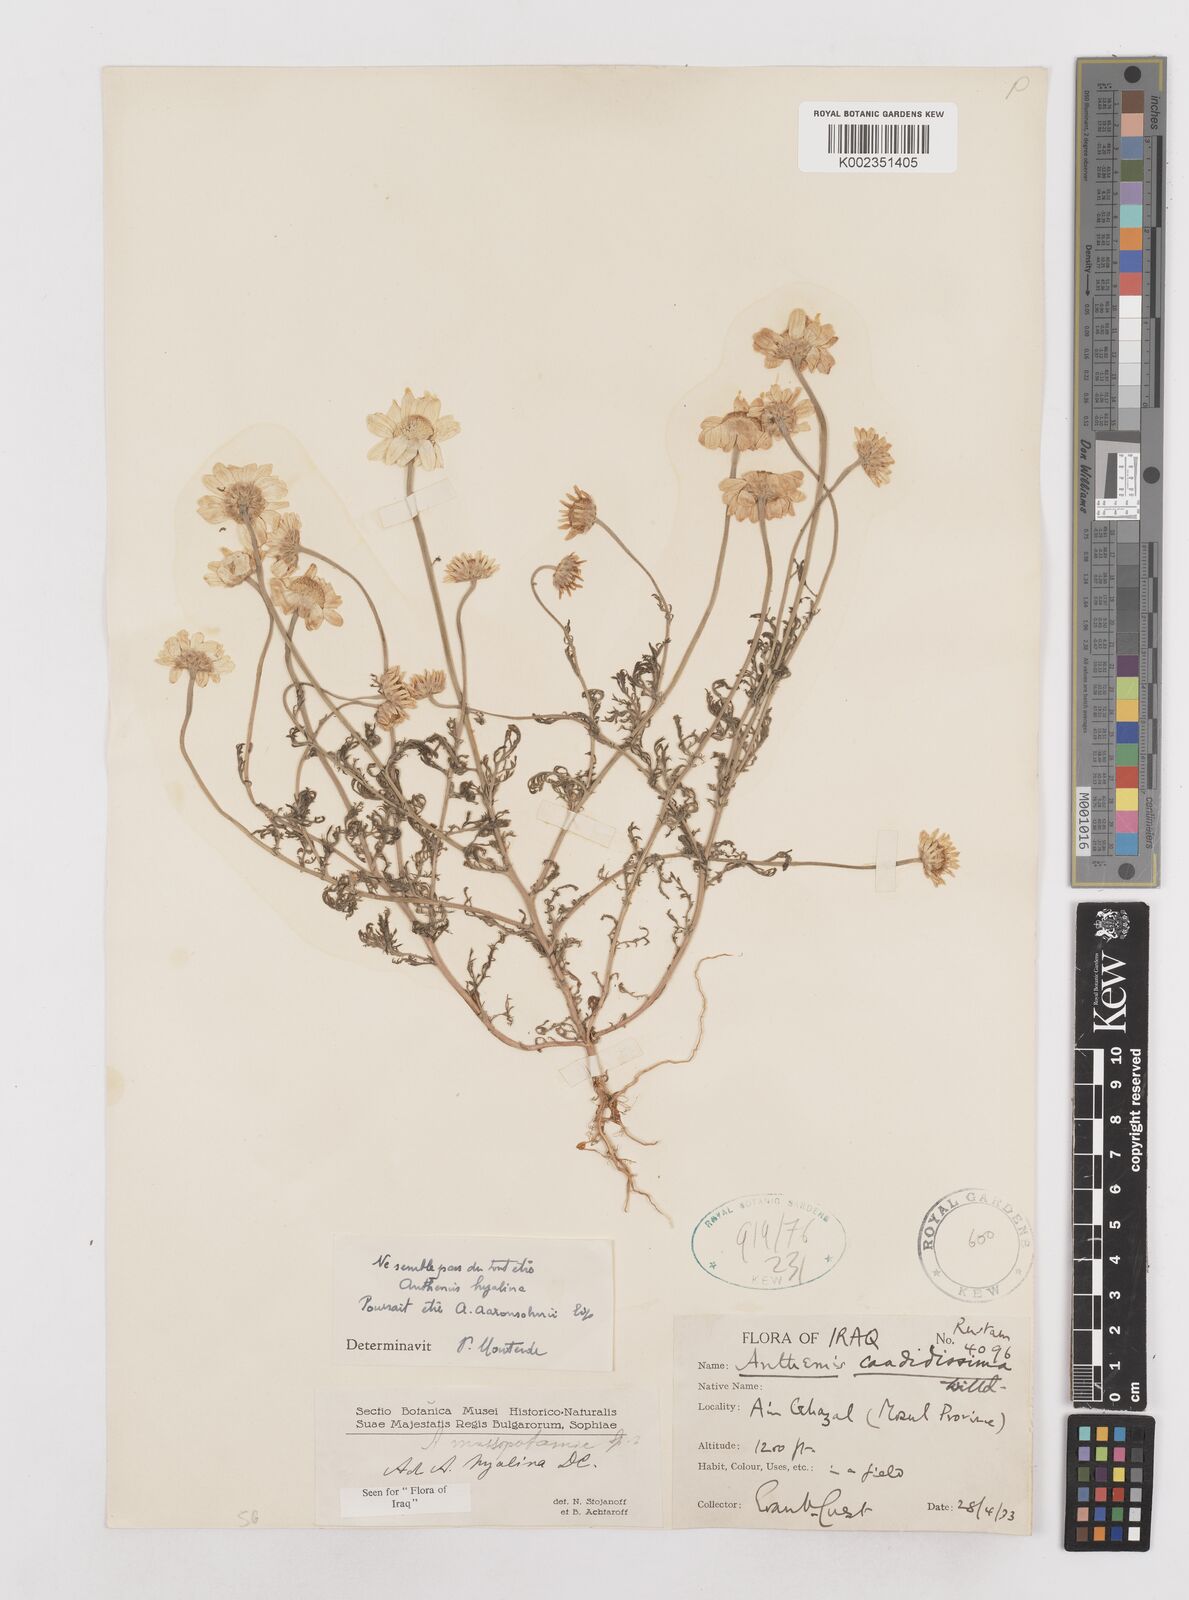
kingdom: Plantae
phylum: Tracheophyta
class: Magnoliopsida
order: Asterales
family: Asteraceae
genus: Anthemis
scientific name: Anthemis hyalina
